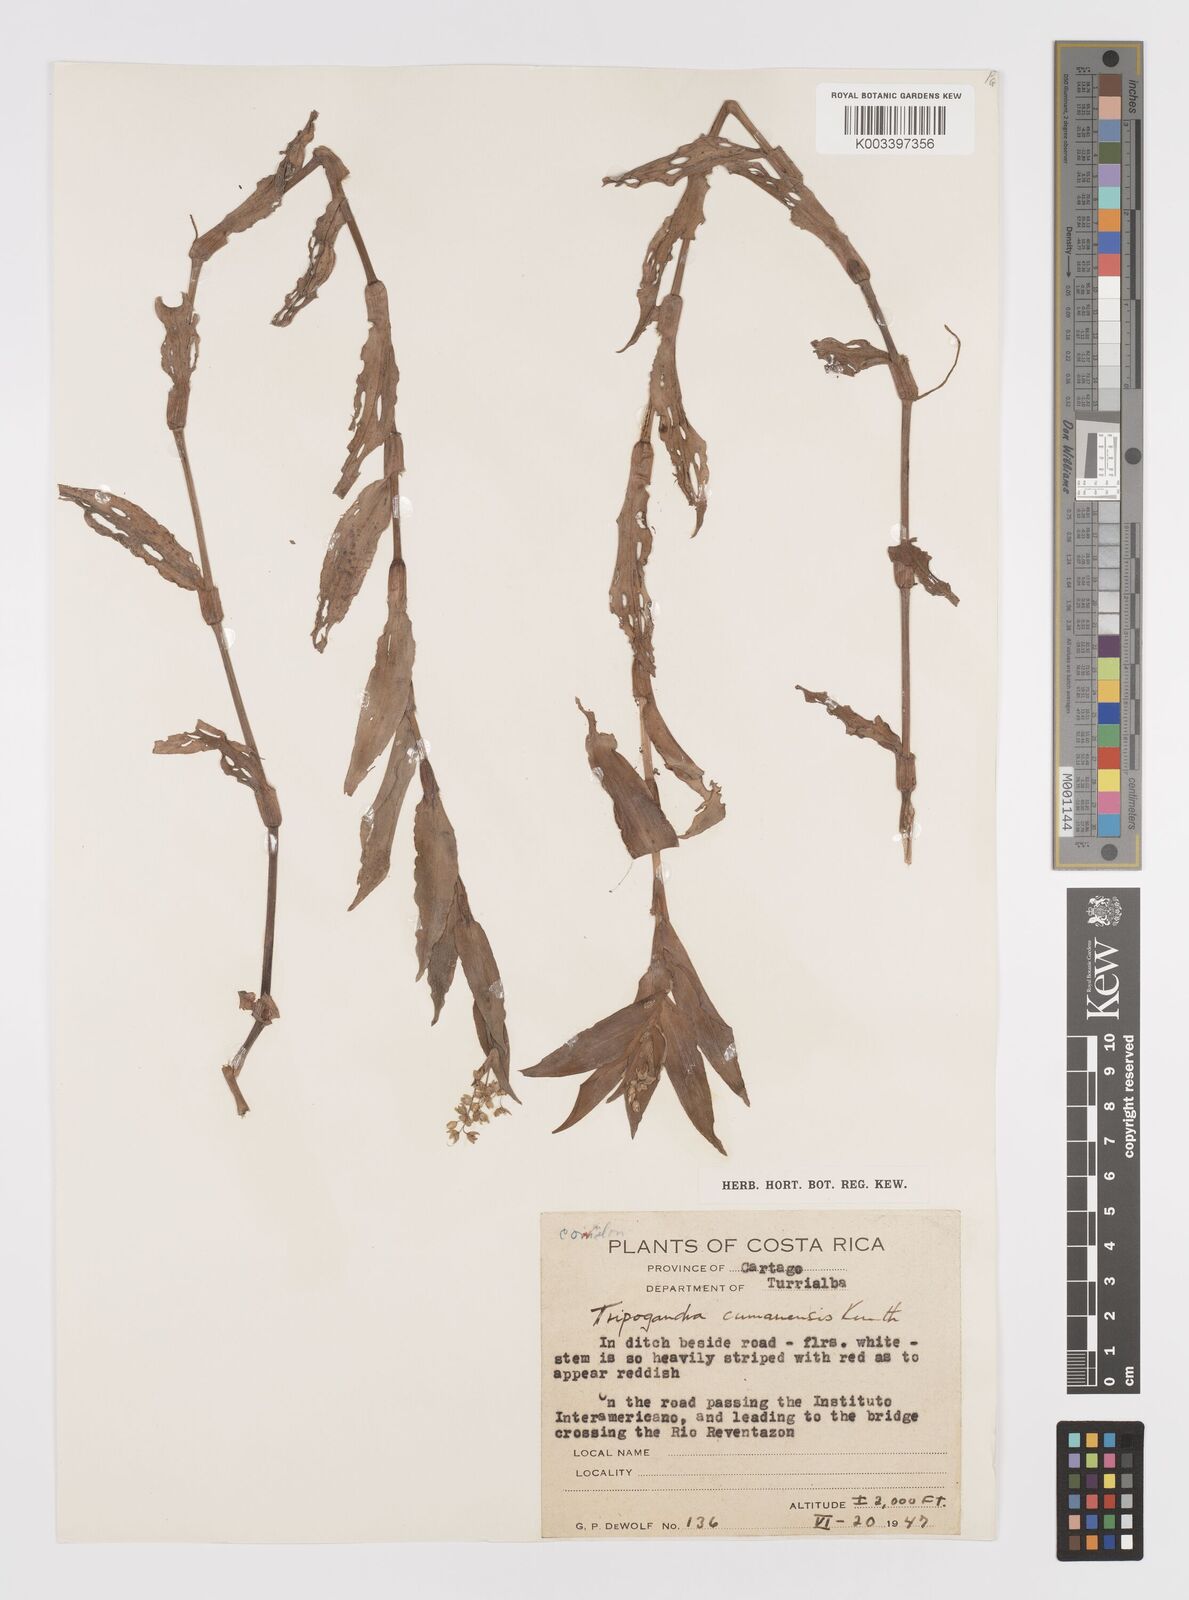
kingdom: Plantae
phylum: Tracheophyta
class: Liliopsida
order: Commelinales
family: Commelinaceae
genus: Callisia
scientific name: Callisia serrulata
